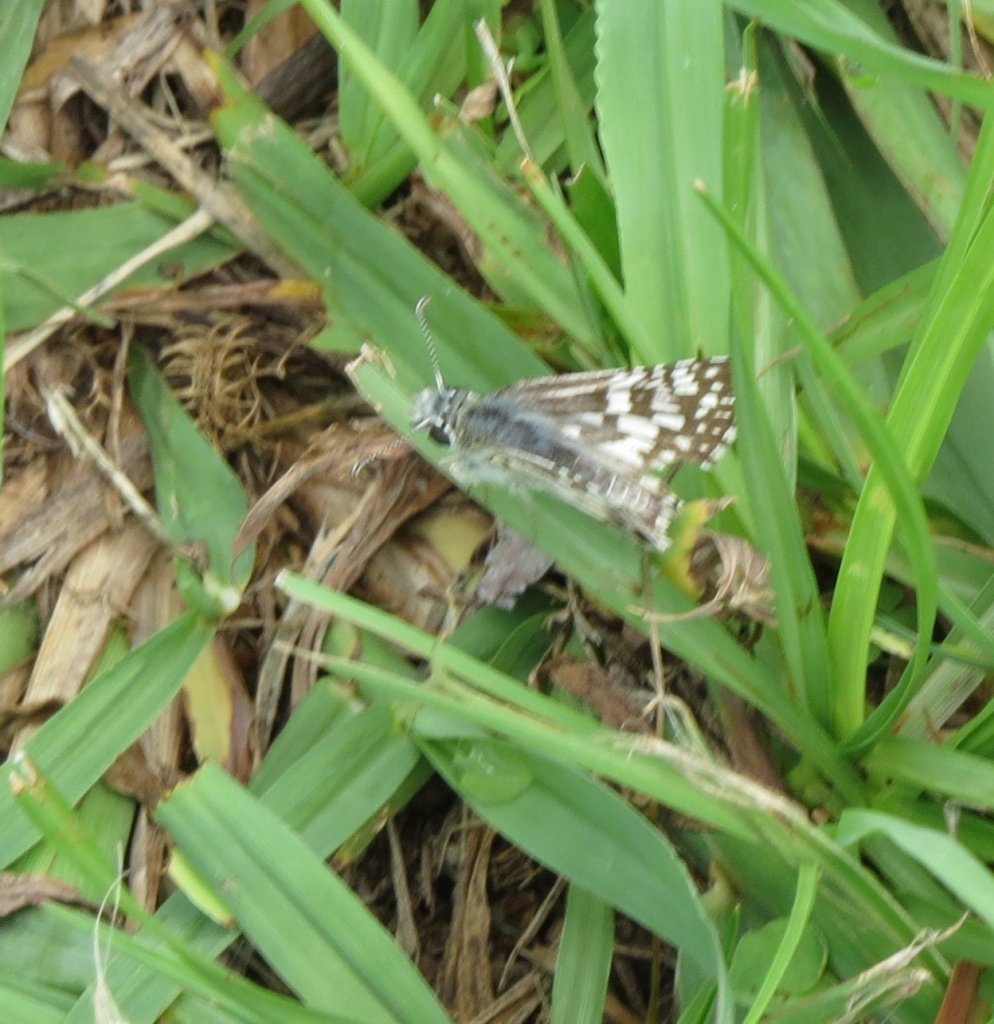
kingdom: Animalia
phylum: Arthropoda
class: Insecta
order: Lepidoptera
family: Hesperiidae
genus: Pyrgus
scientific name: Pyrgus communis
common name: White Checkered-Skipper
